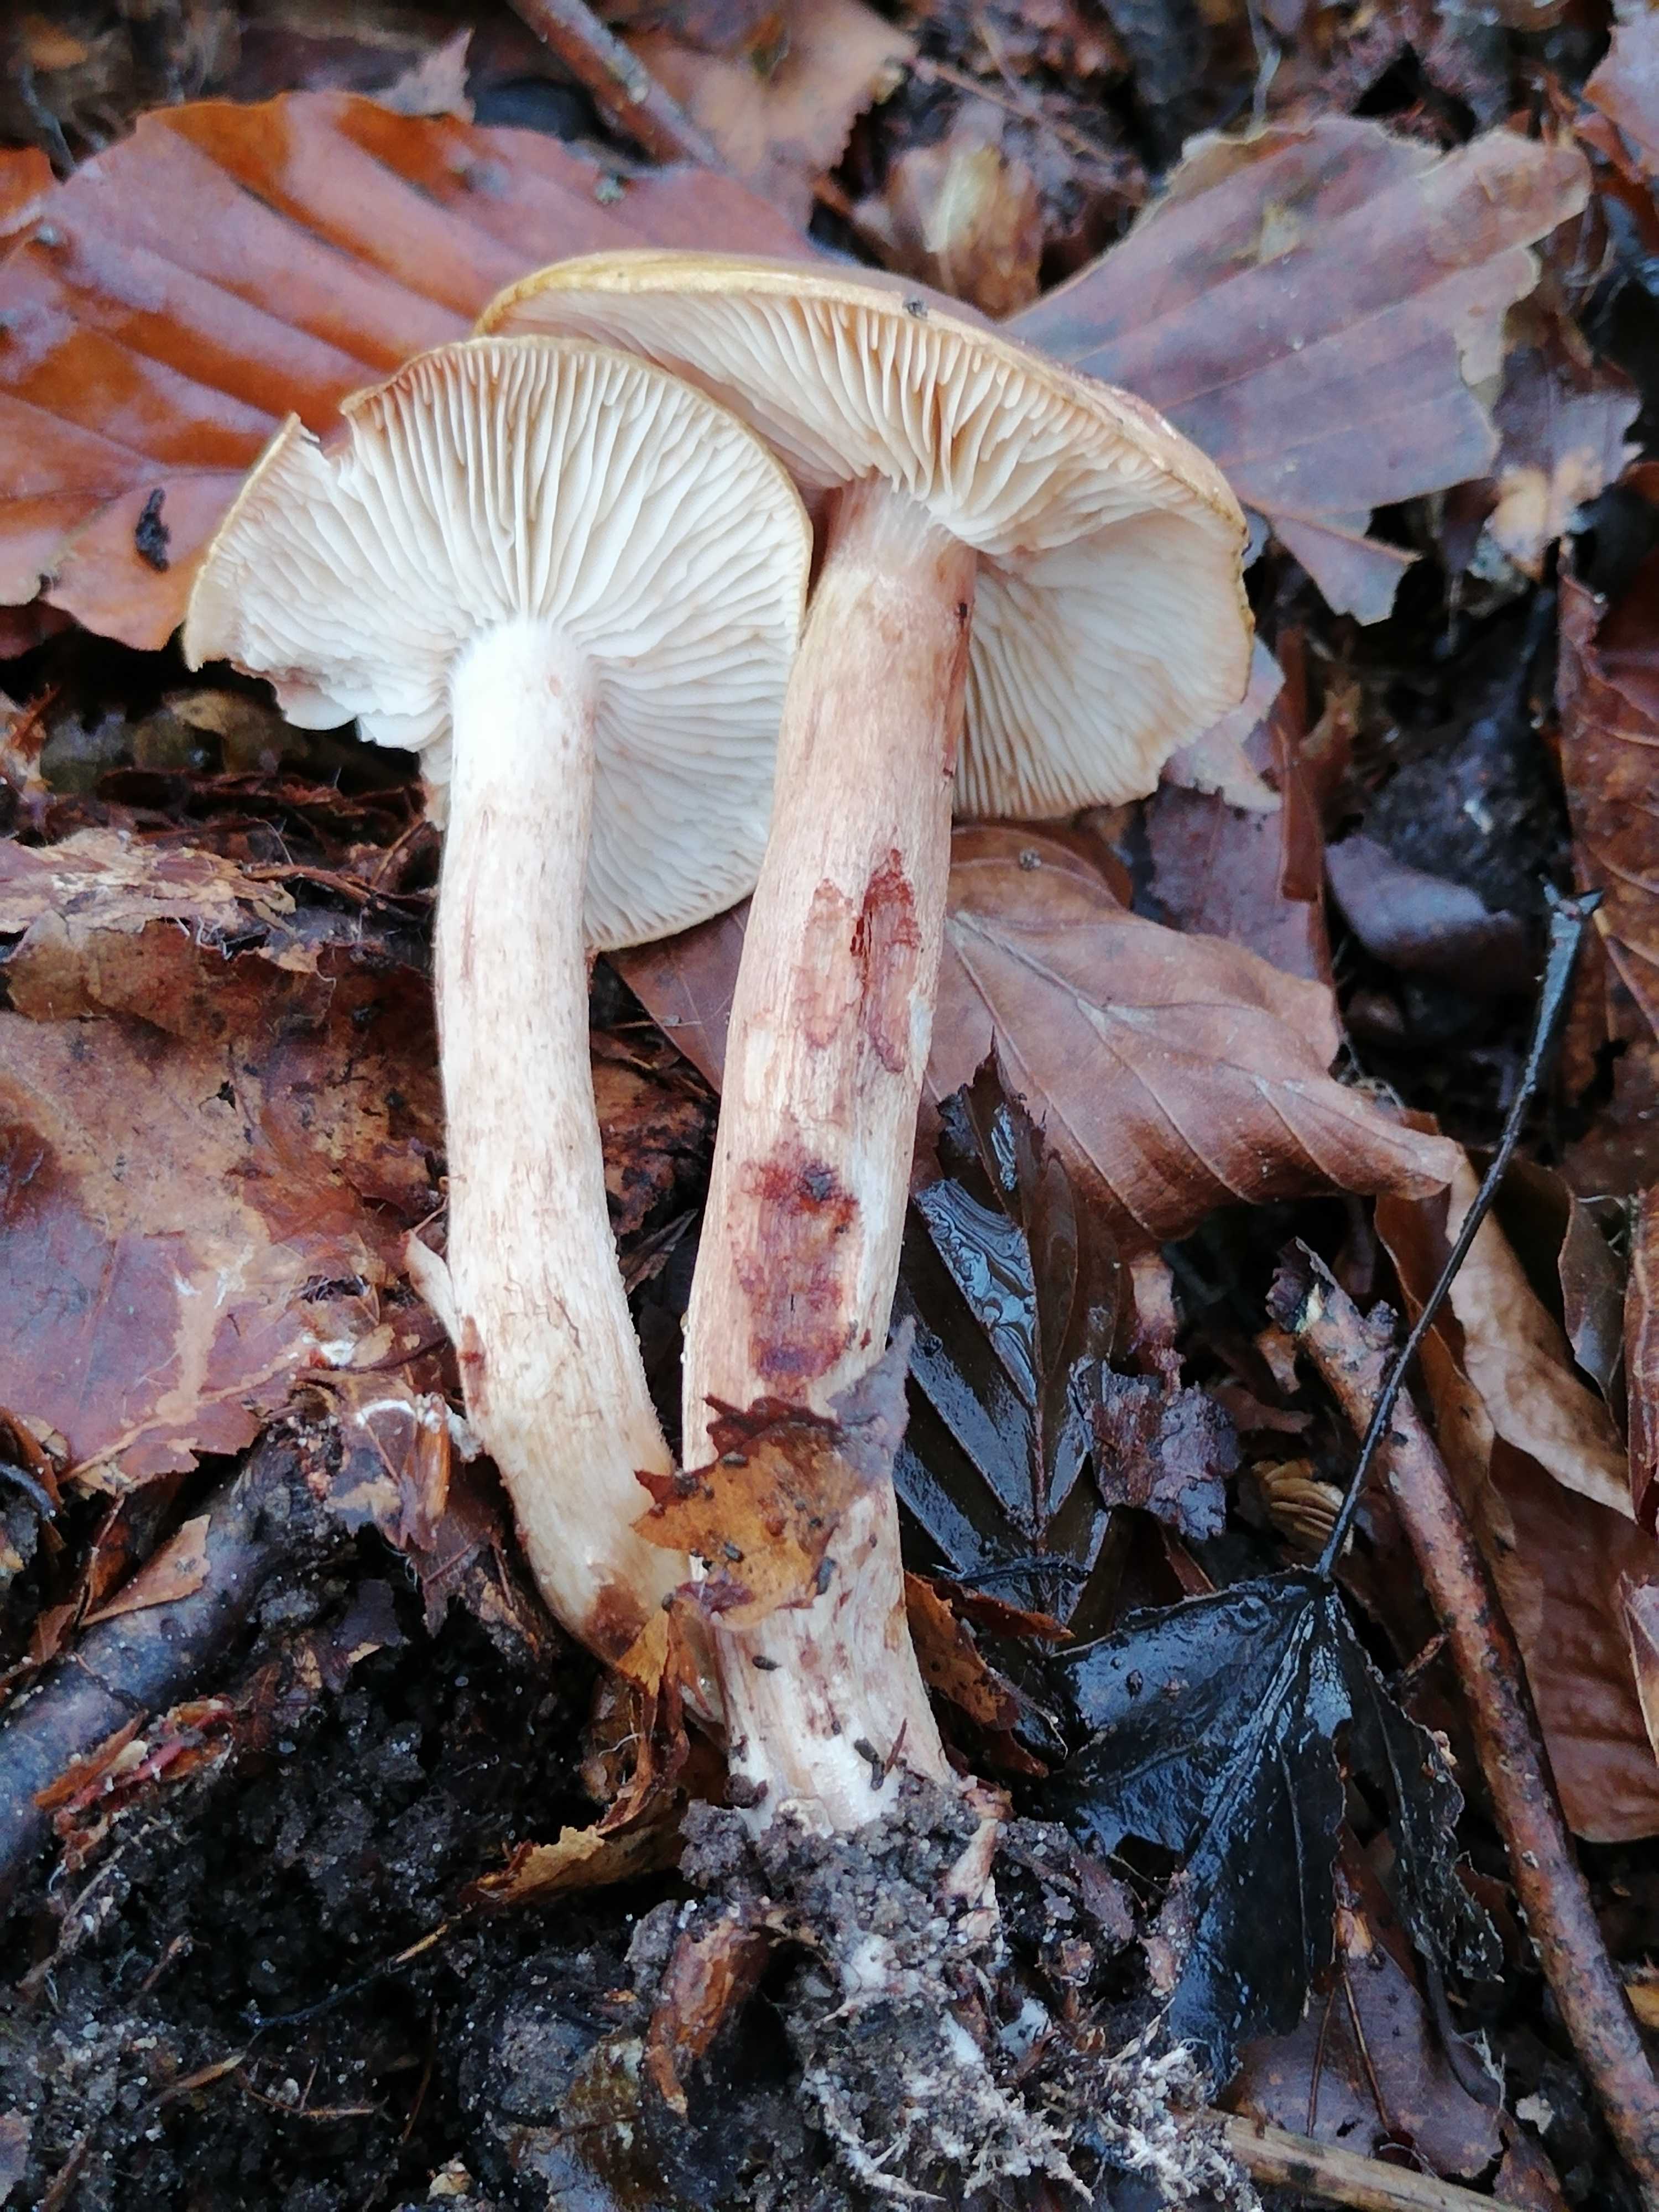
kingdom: Fungi
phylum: Basidiomycota
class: Agaricomycetes
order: Agaricales
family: Tricholomataceae
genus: Tricholoma
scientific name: Tricholoma ustale
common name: sveden ridderhat
